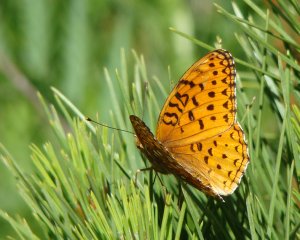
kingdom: Animalia
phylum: Arthropoda
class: Insecta
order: Lepidoptera
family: Nymphalidae
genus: Speyeria
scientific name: Speyeria aphrodite
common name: Aphrodite Fritillary
